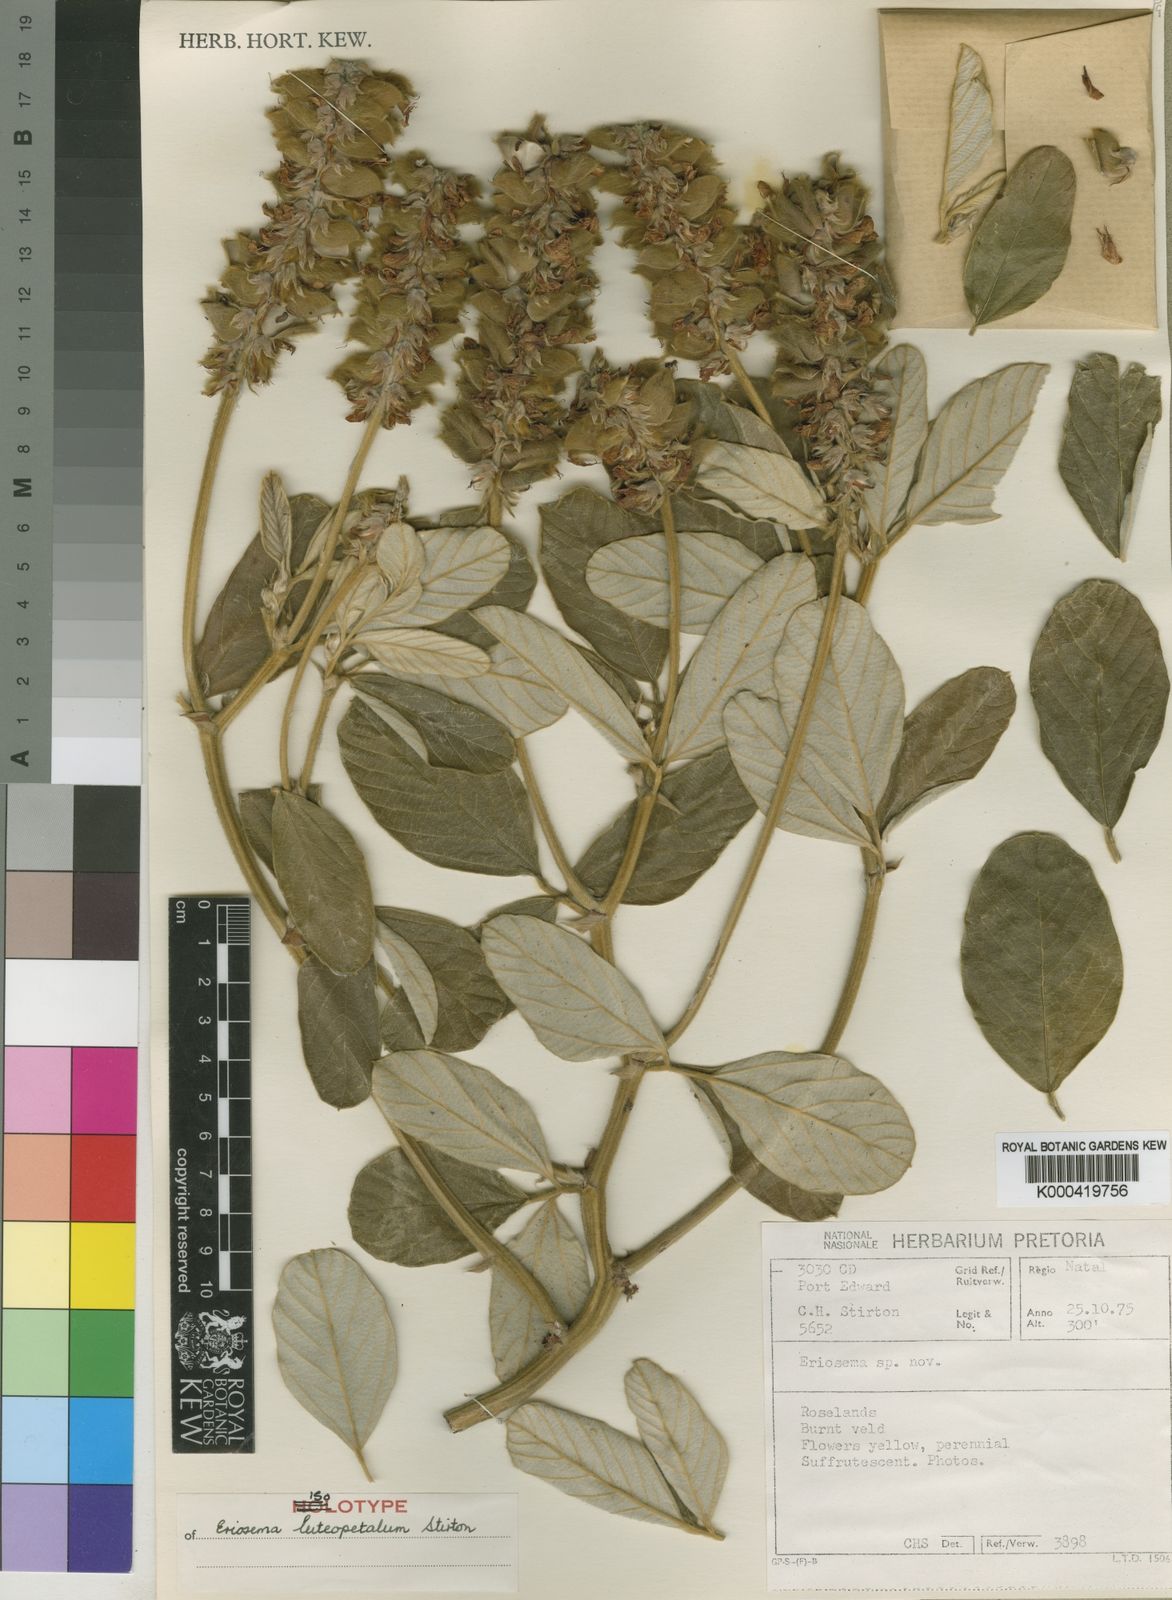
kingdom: Plantae
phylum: Tracheophyta
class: Magnoliopsida
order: Fabales
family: Fabaceae
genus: Eriosema
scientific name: Eriosema luteopetalum
